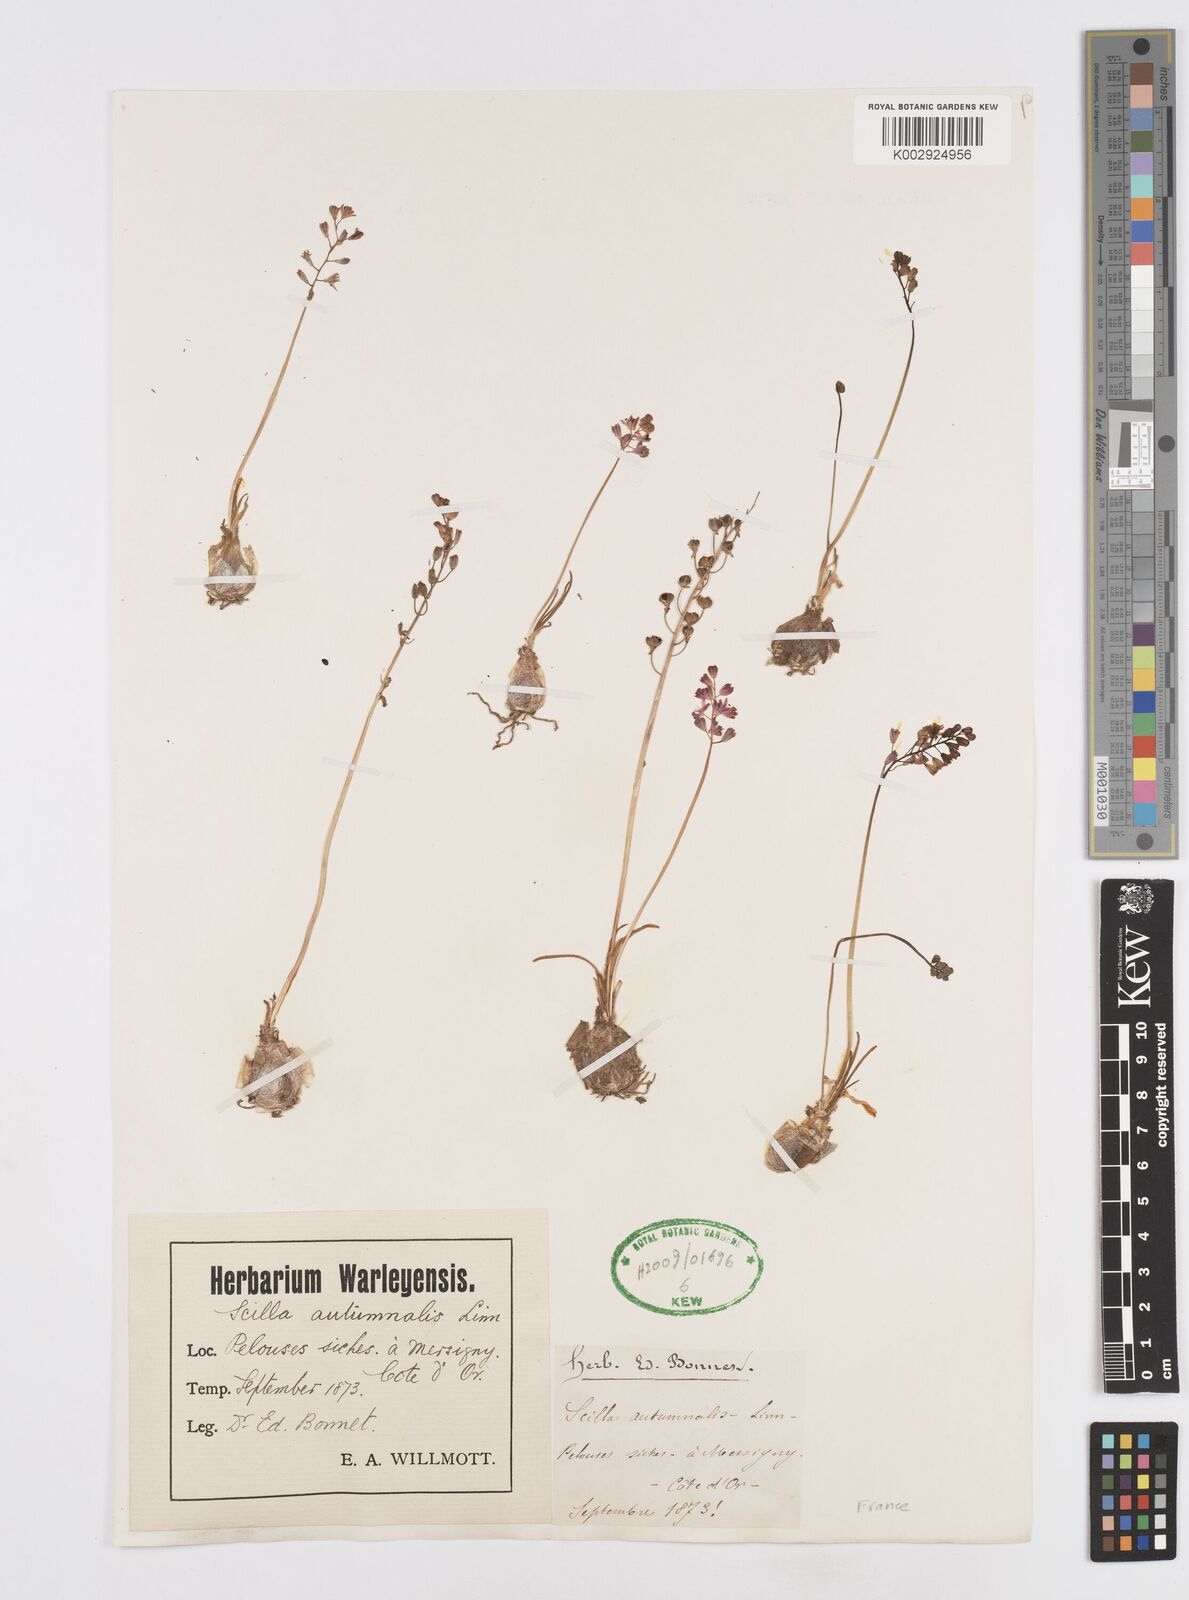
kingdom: Plantae
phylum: Tracheophyta
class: Liliopsida
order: Asparagales
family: Asparagaceae
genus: Prospero
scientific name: Prospero autumnale
